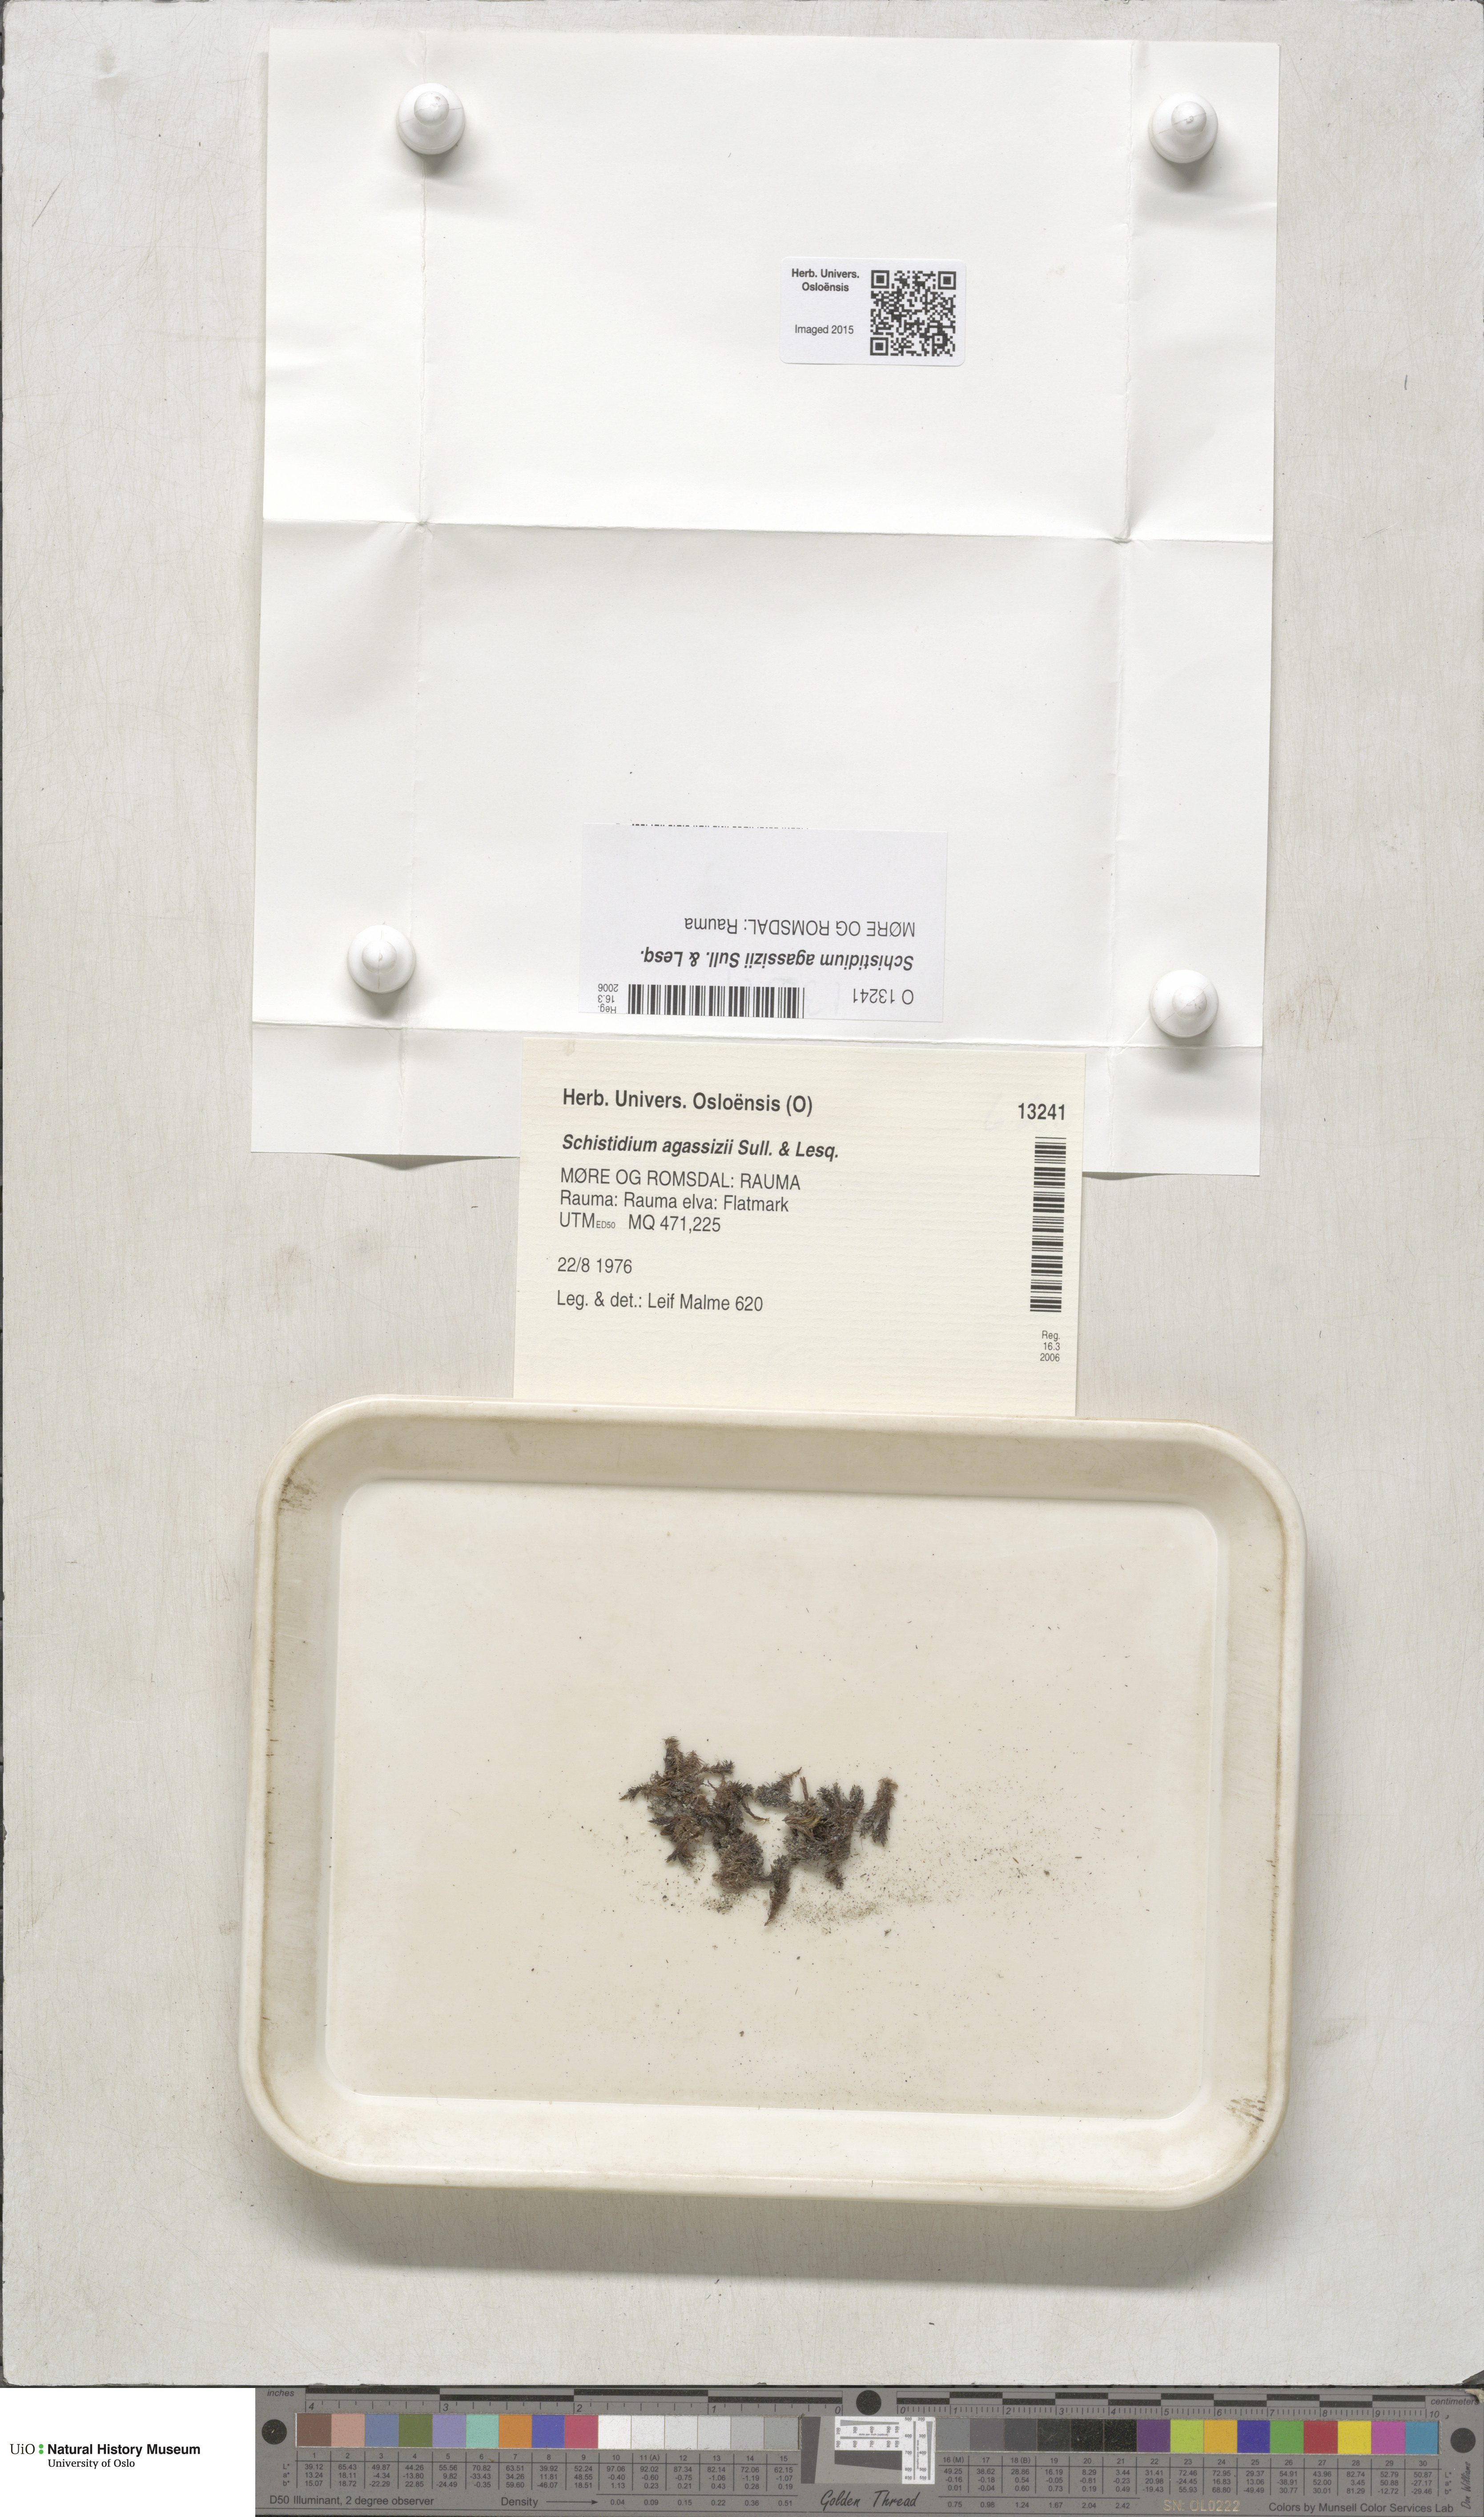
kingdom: Plantae
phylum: Bryophyta
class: Bryopsida
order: Grimmiales
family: Grimmiaceae
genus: Schistidium
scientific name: Schistidium agassizii
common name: Agassiz's bloom moss
